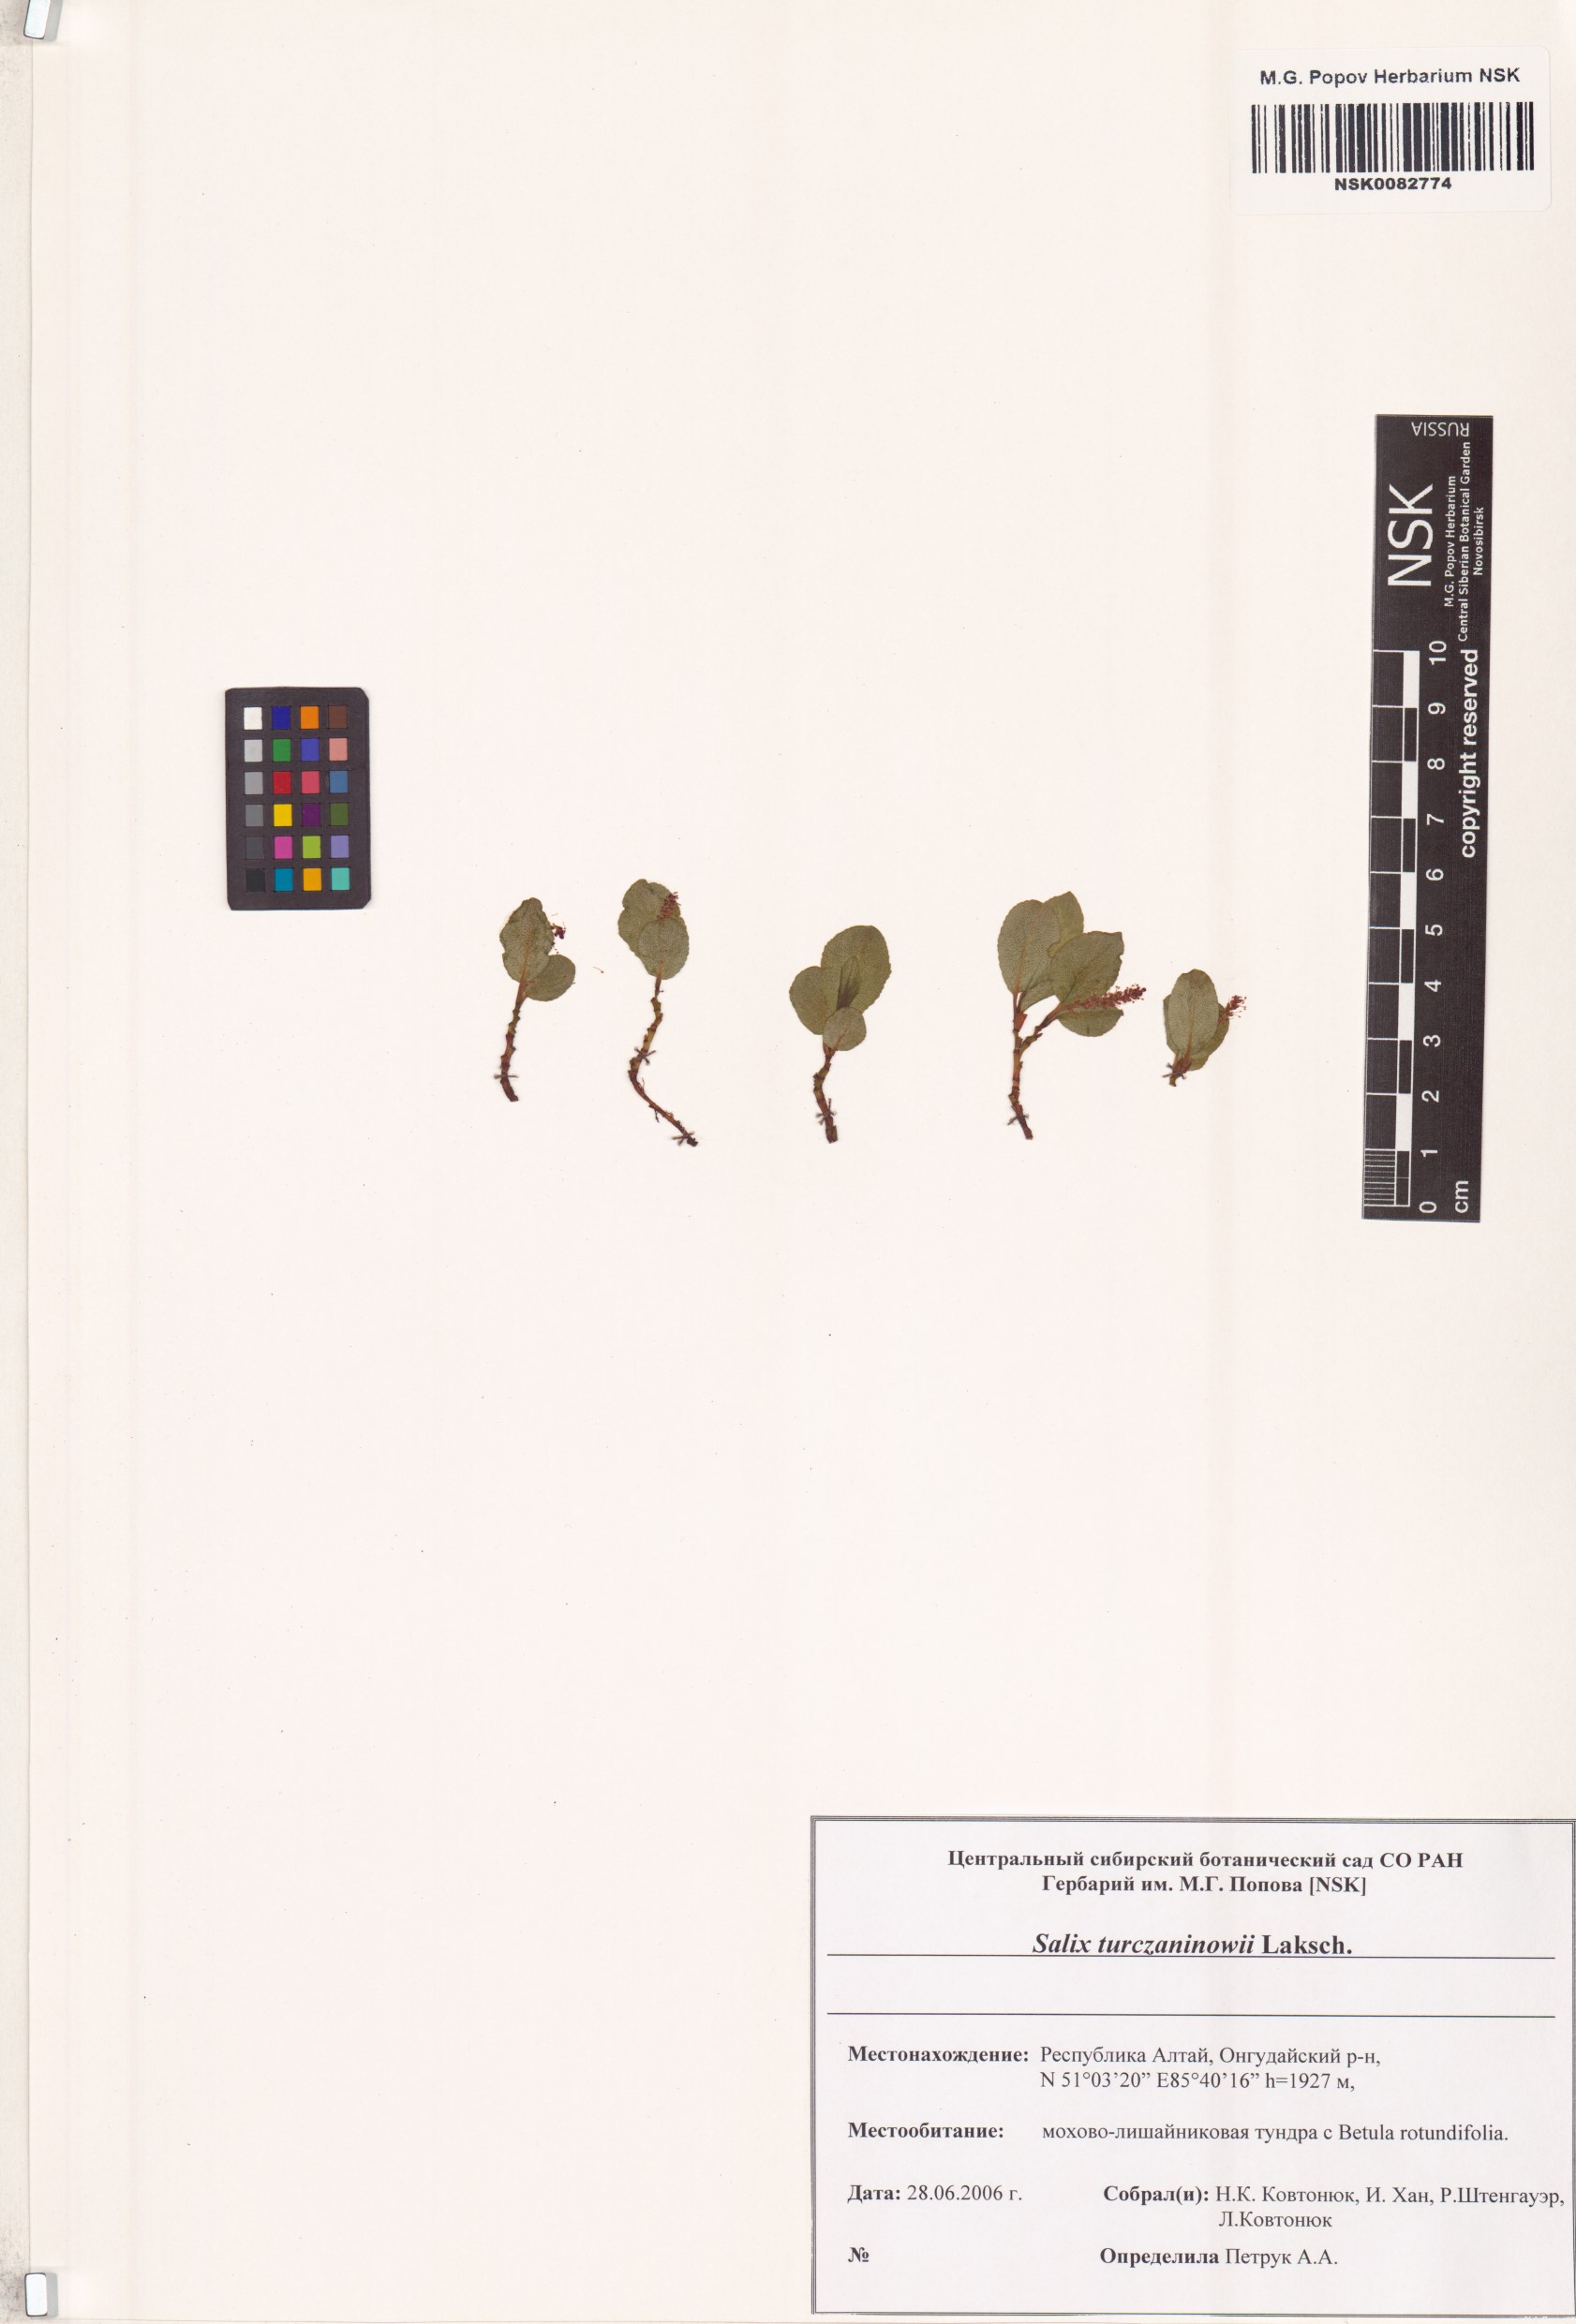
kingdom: Plantae
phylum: Tracheophyta
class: Magnoliopsida
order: Malpighiales
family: Salicaceae
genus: Salix
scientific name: Salix turczaninowii
